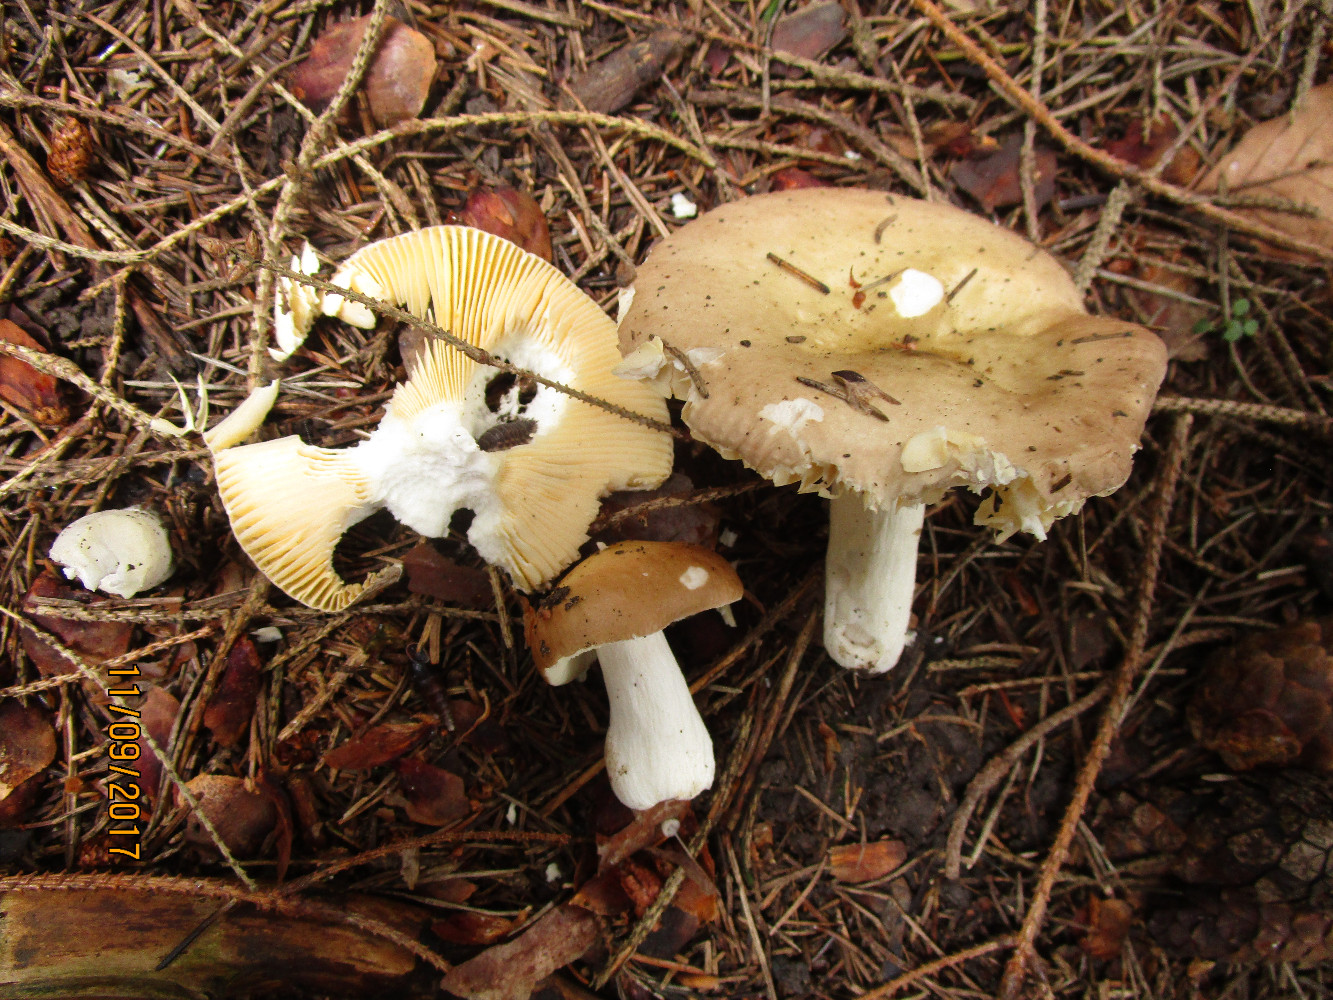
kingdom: Fungi
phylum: Basidiomycota
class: Agaricomycetes
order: Russulales
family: Russulaceae
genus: Russula
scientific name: Russula nauseosa
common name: spinkel skørhat
